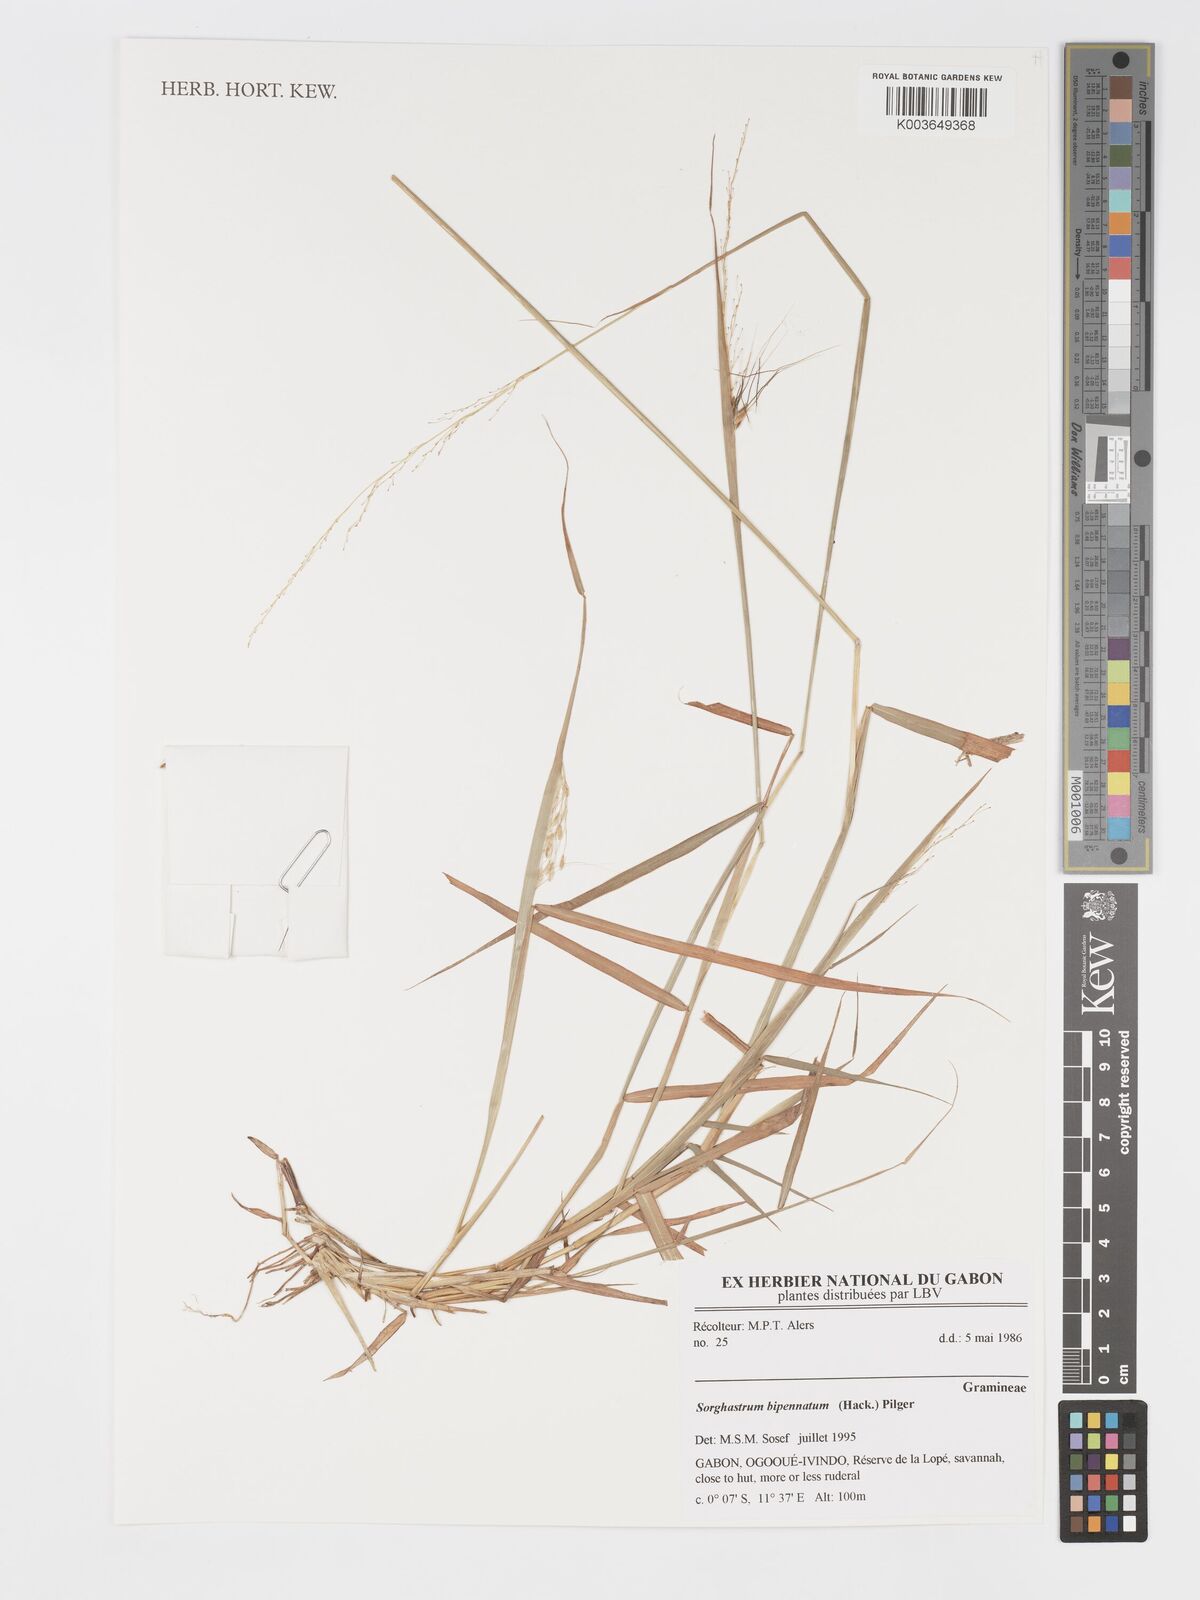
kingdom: Plantae
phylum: Tracheophyta
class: Liliopsida
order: Poales
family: Poaceae
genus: Sorghastrum
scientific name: Sorghastrum incompletum
